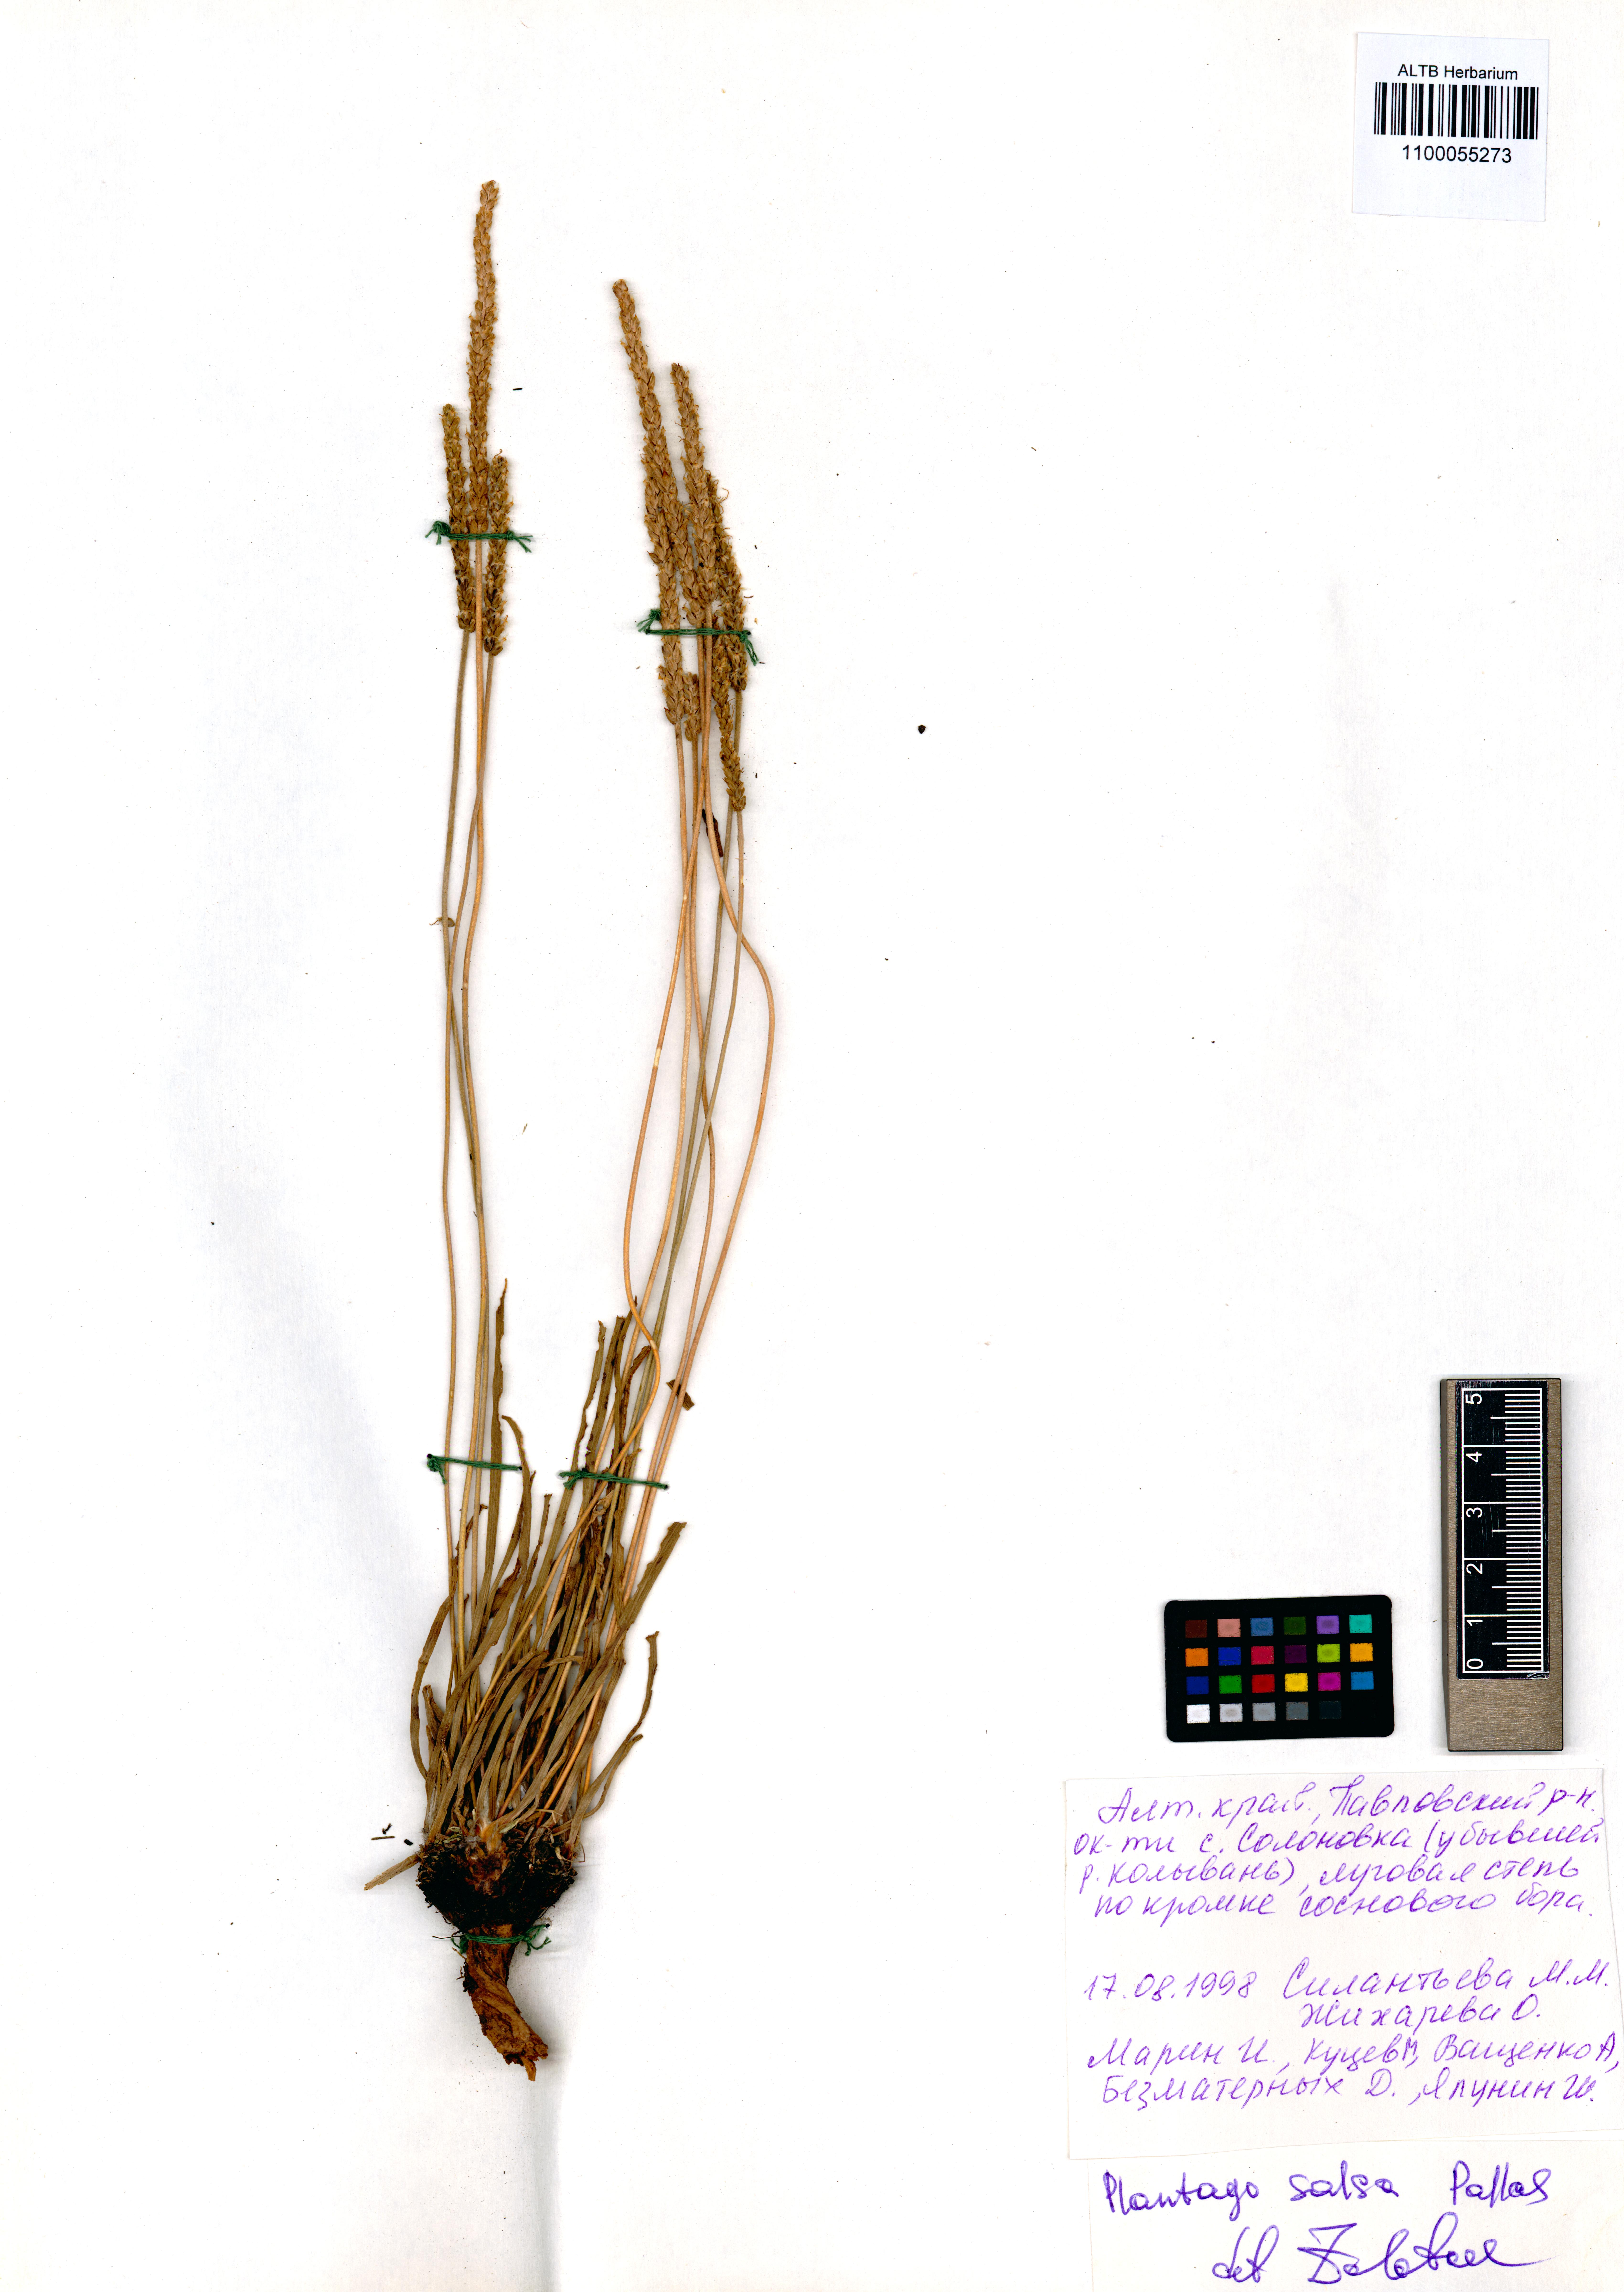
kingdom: Plantae
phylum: Tracheophyta
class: Magnoliopsida
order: Lamiales
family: Plantaginaceae
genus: Plantago
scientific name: Plantago salsa
